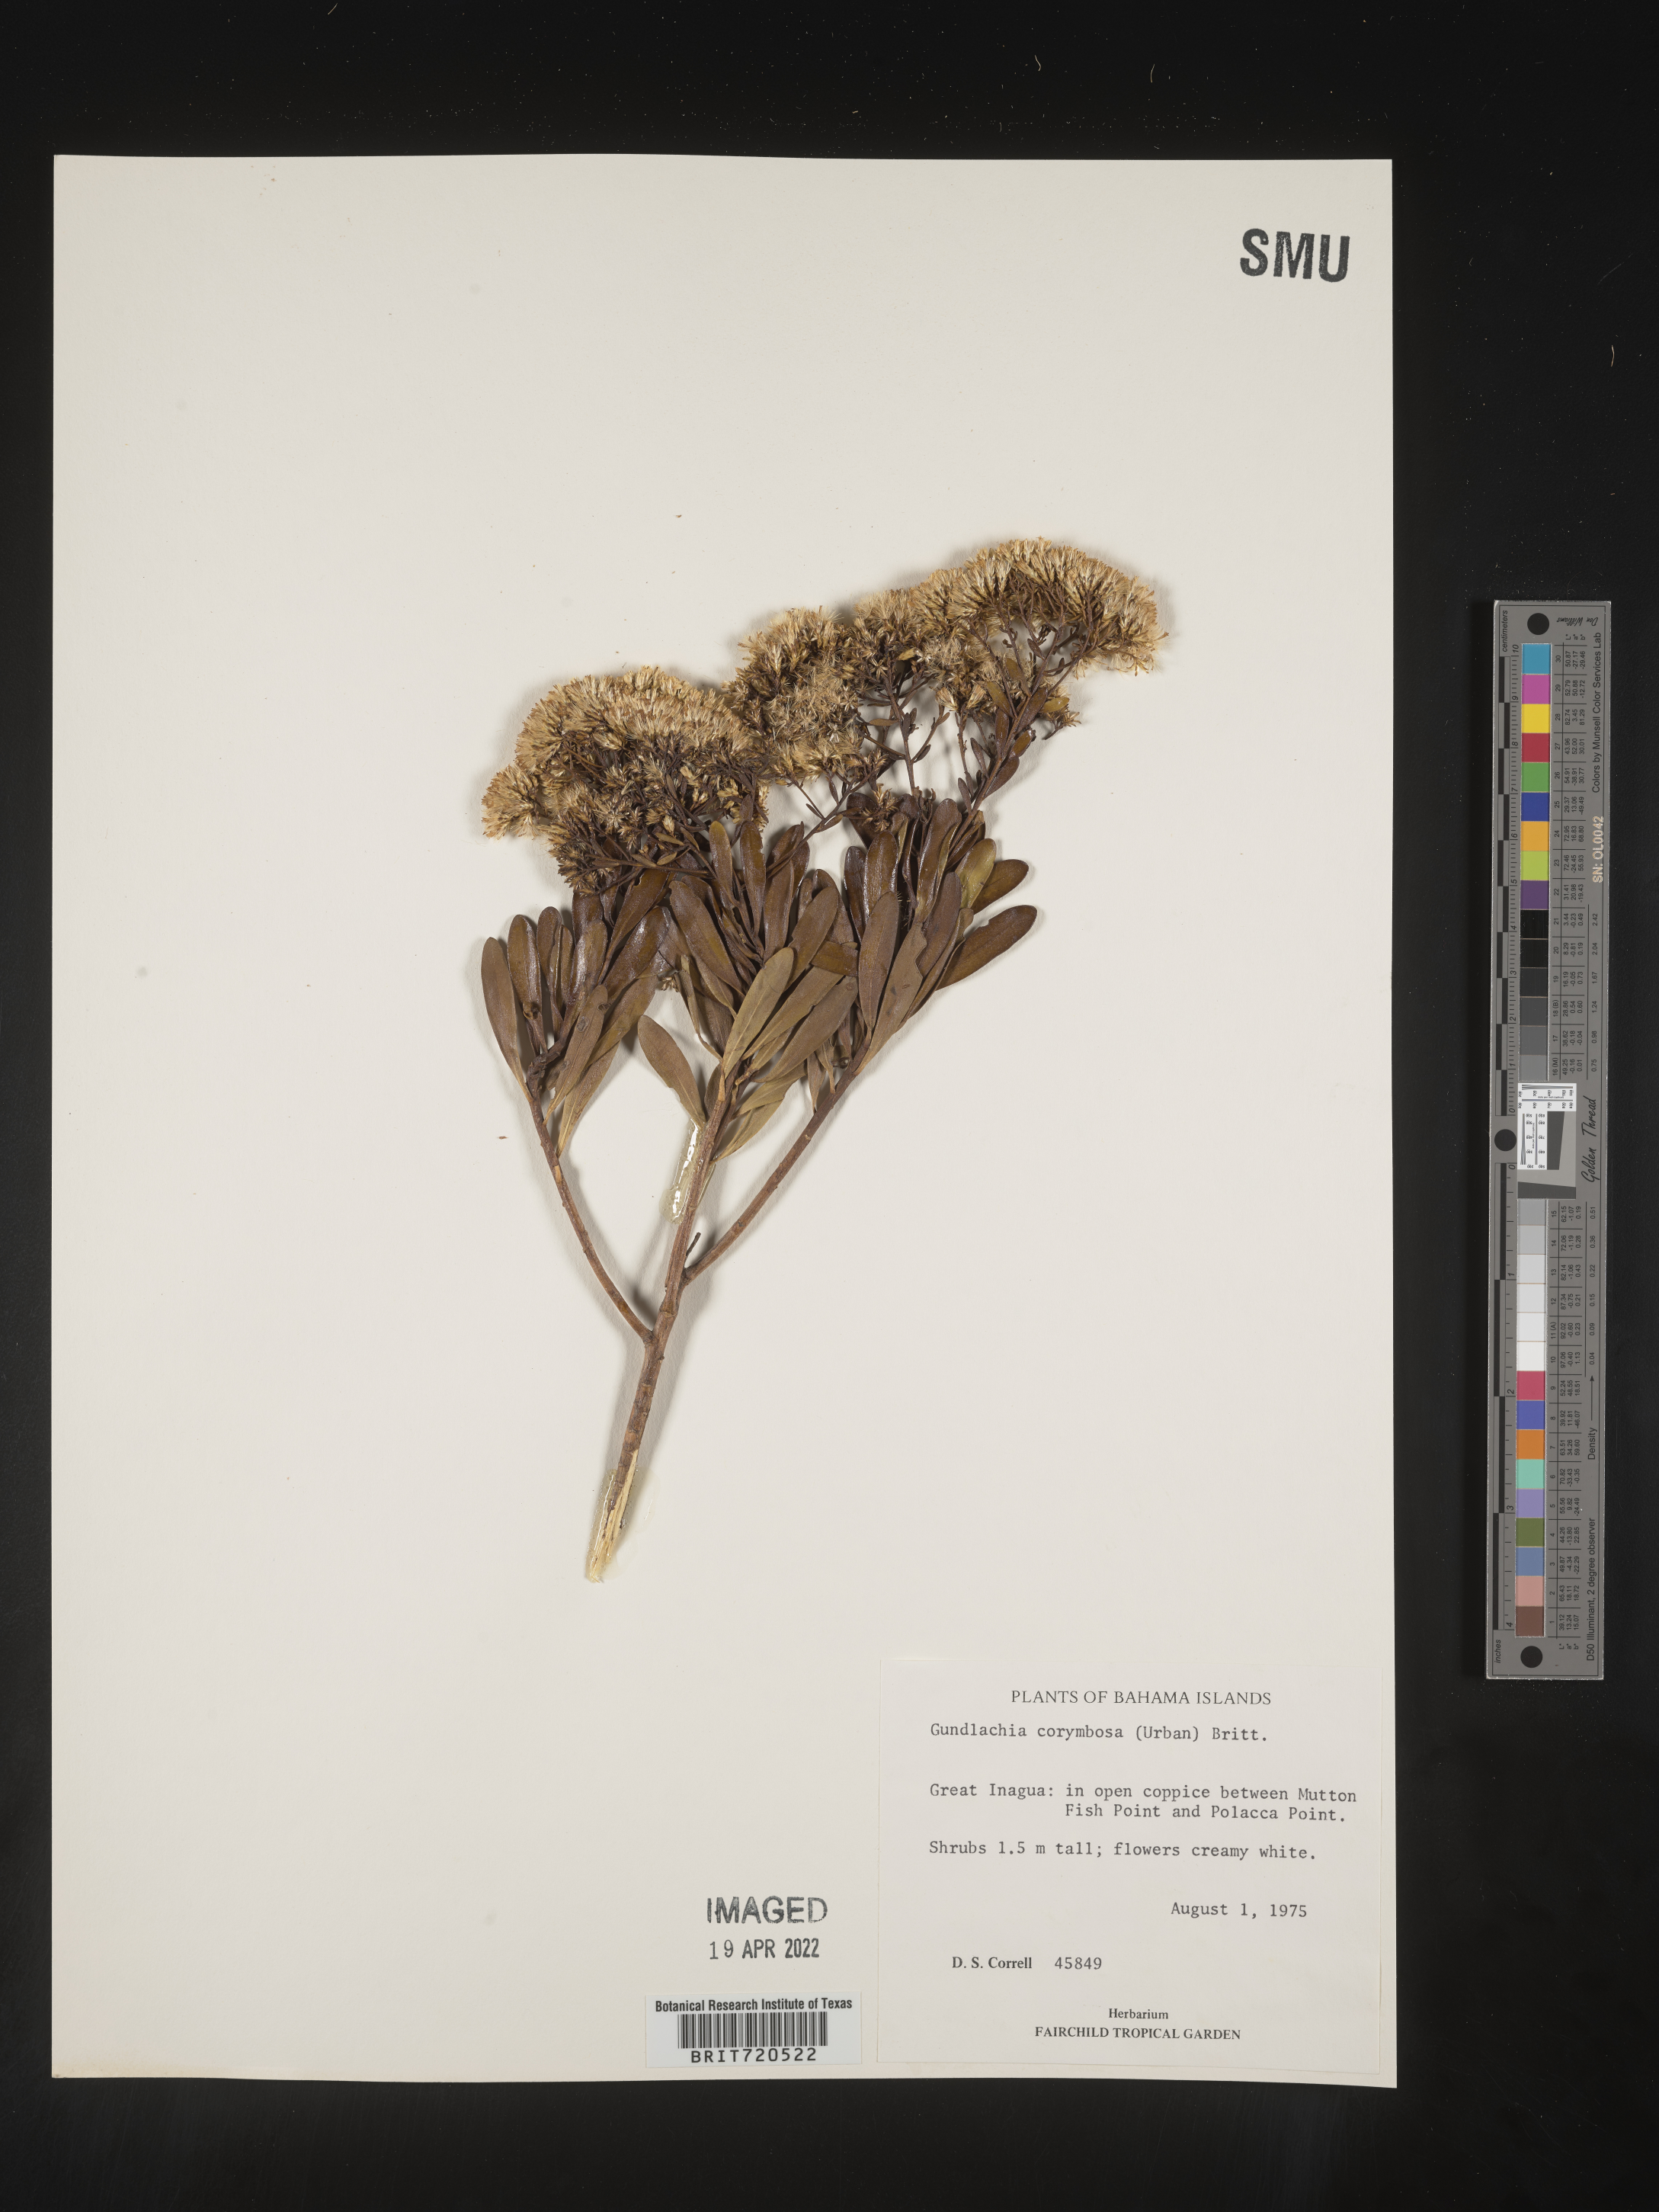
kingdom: Plantae
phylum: Tracheophyta
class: Magnoliopsida
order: Asterales
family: Asteraceae
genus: Gundlachia
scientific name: Gundlachia
